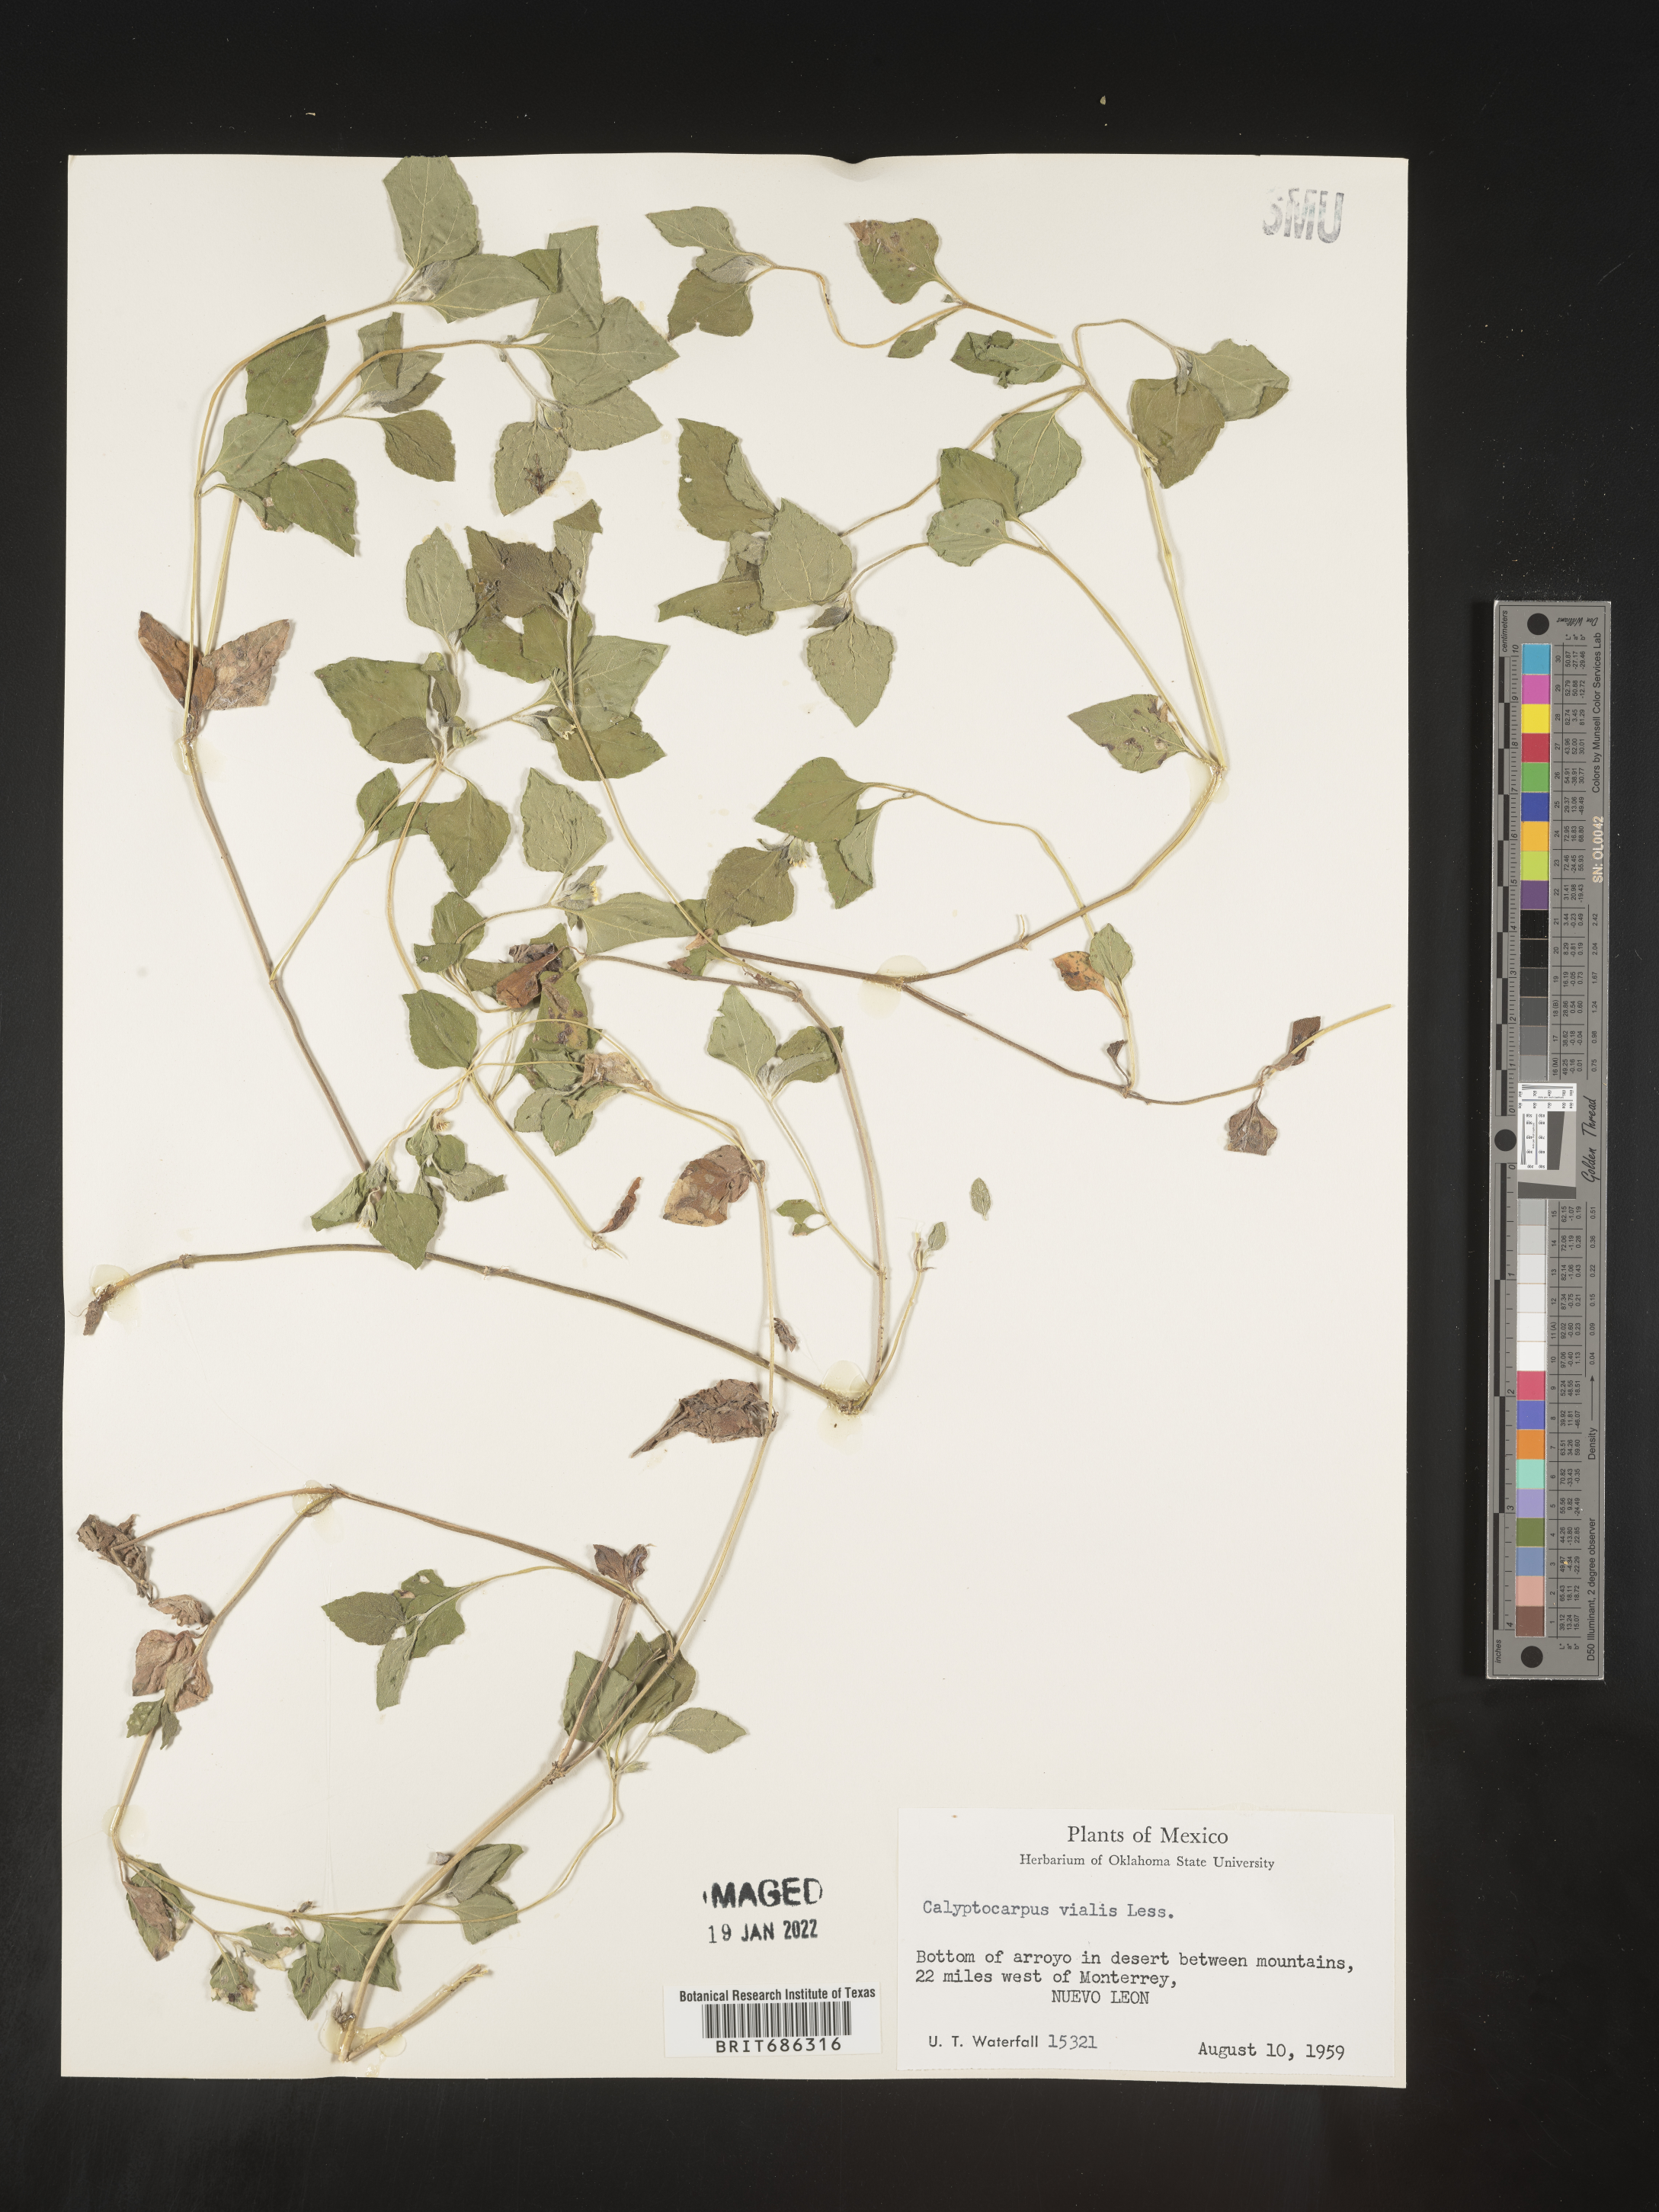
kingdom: Plantae
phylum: Tracheophyta
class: Magnoliopsida
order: Asterales
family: Asteraceae
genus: Calyptocarpus
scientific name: Calyptocarpus
